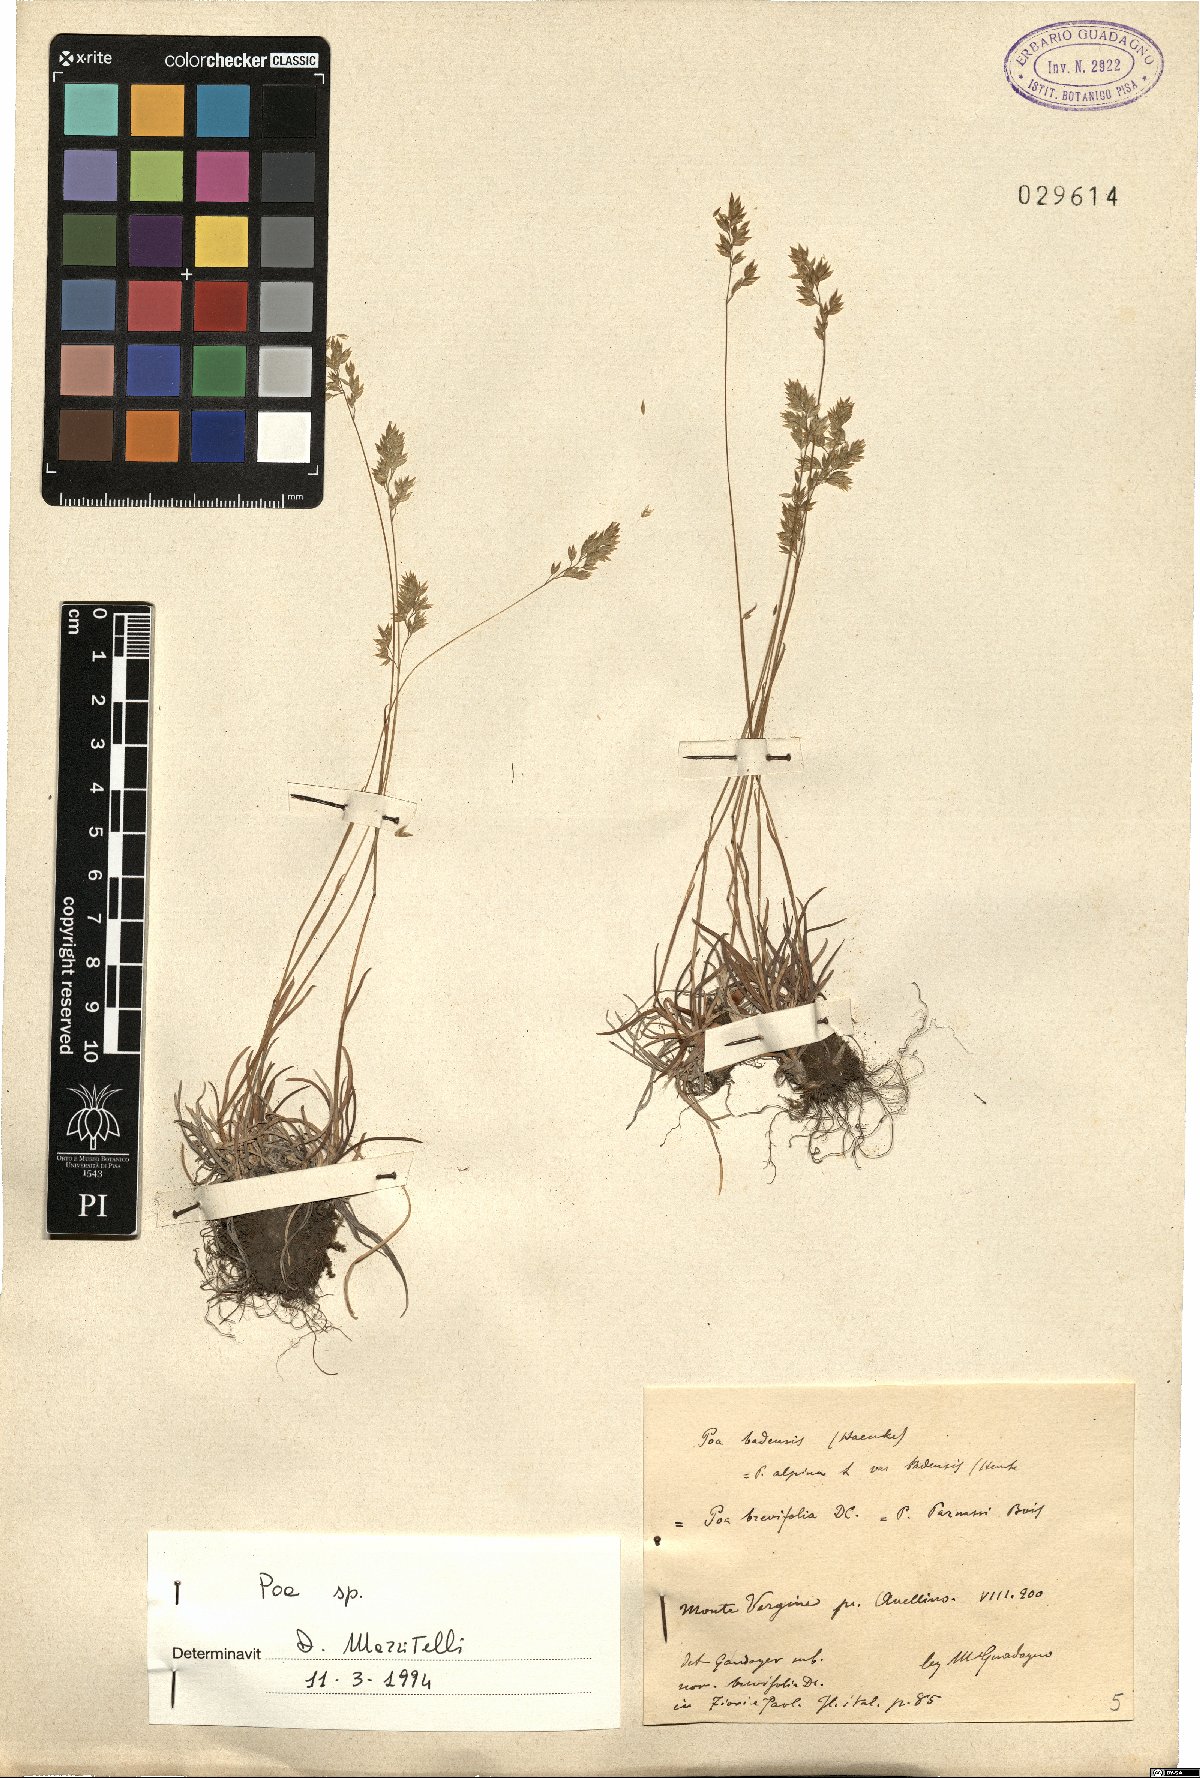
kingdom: Plantae
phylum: Tracheophyta
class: Liliopsida
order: Poales
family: Poaceae
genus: Poa
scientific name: Poa
